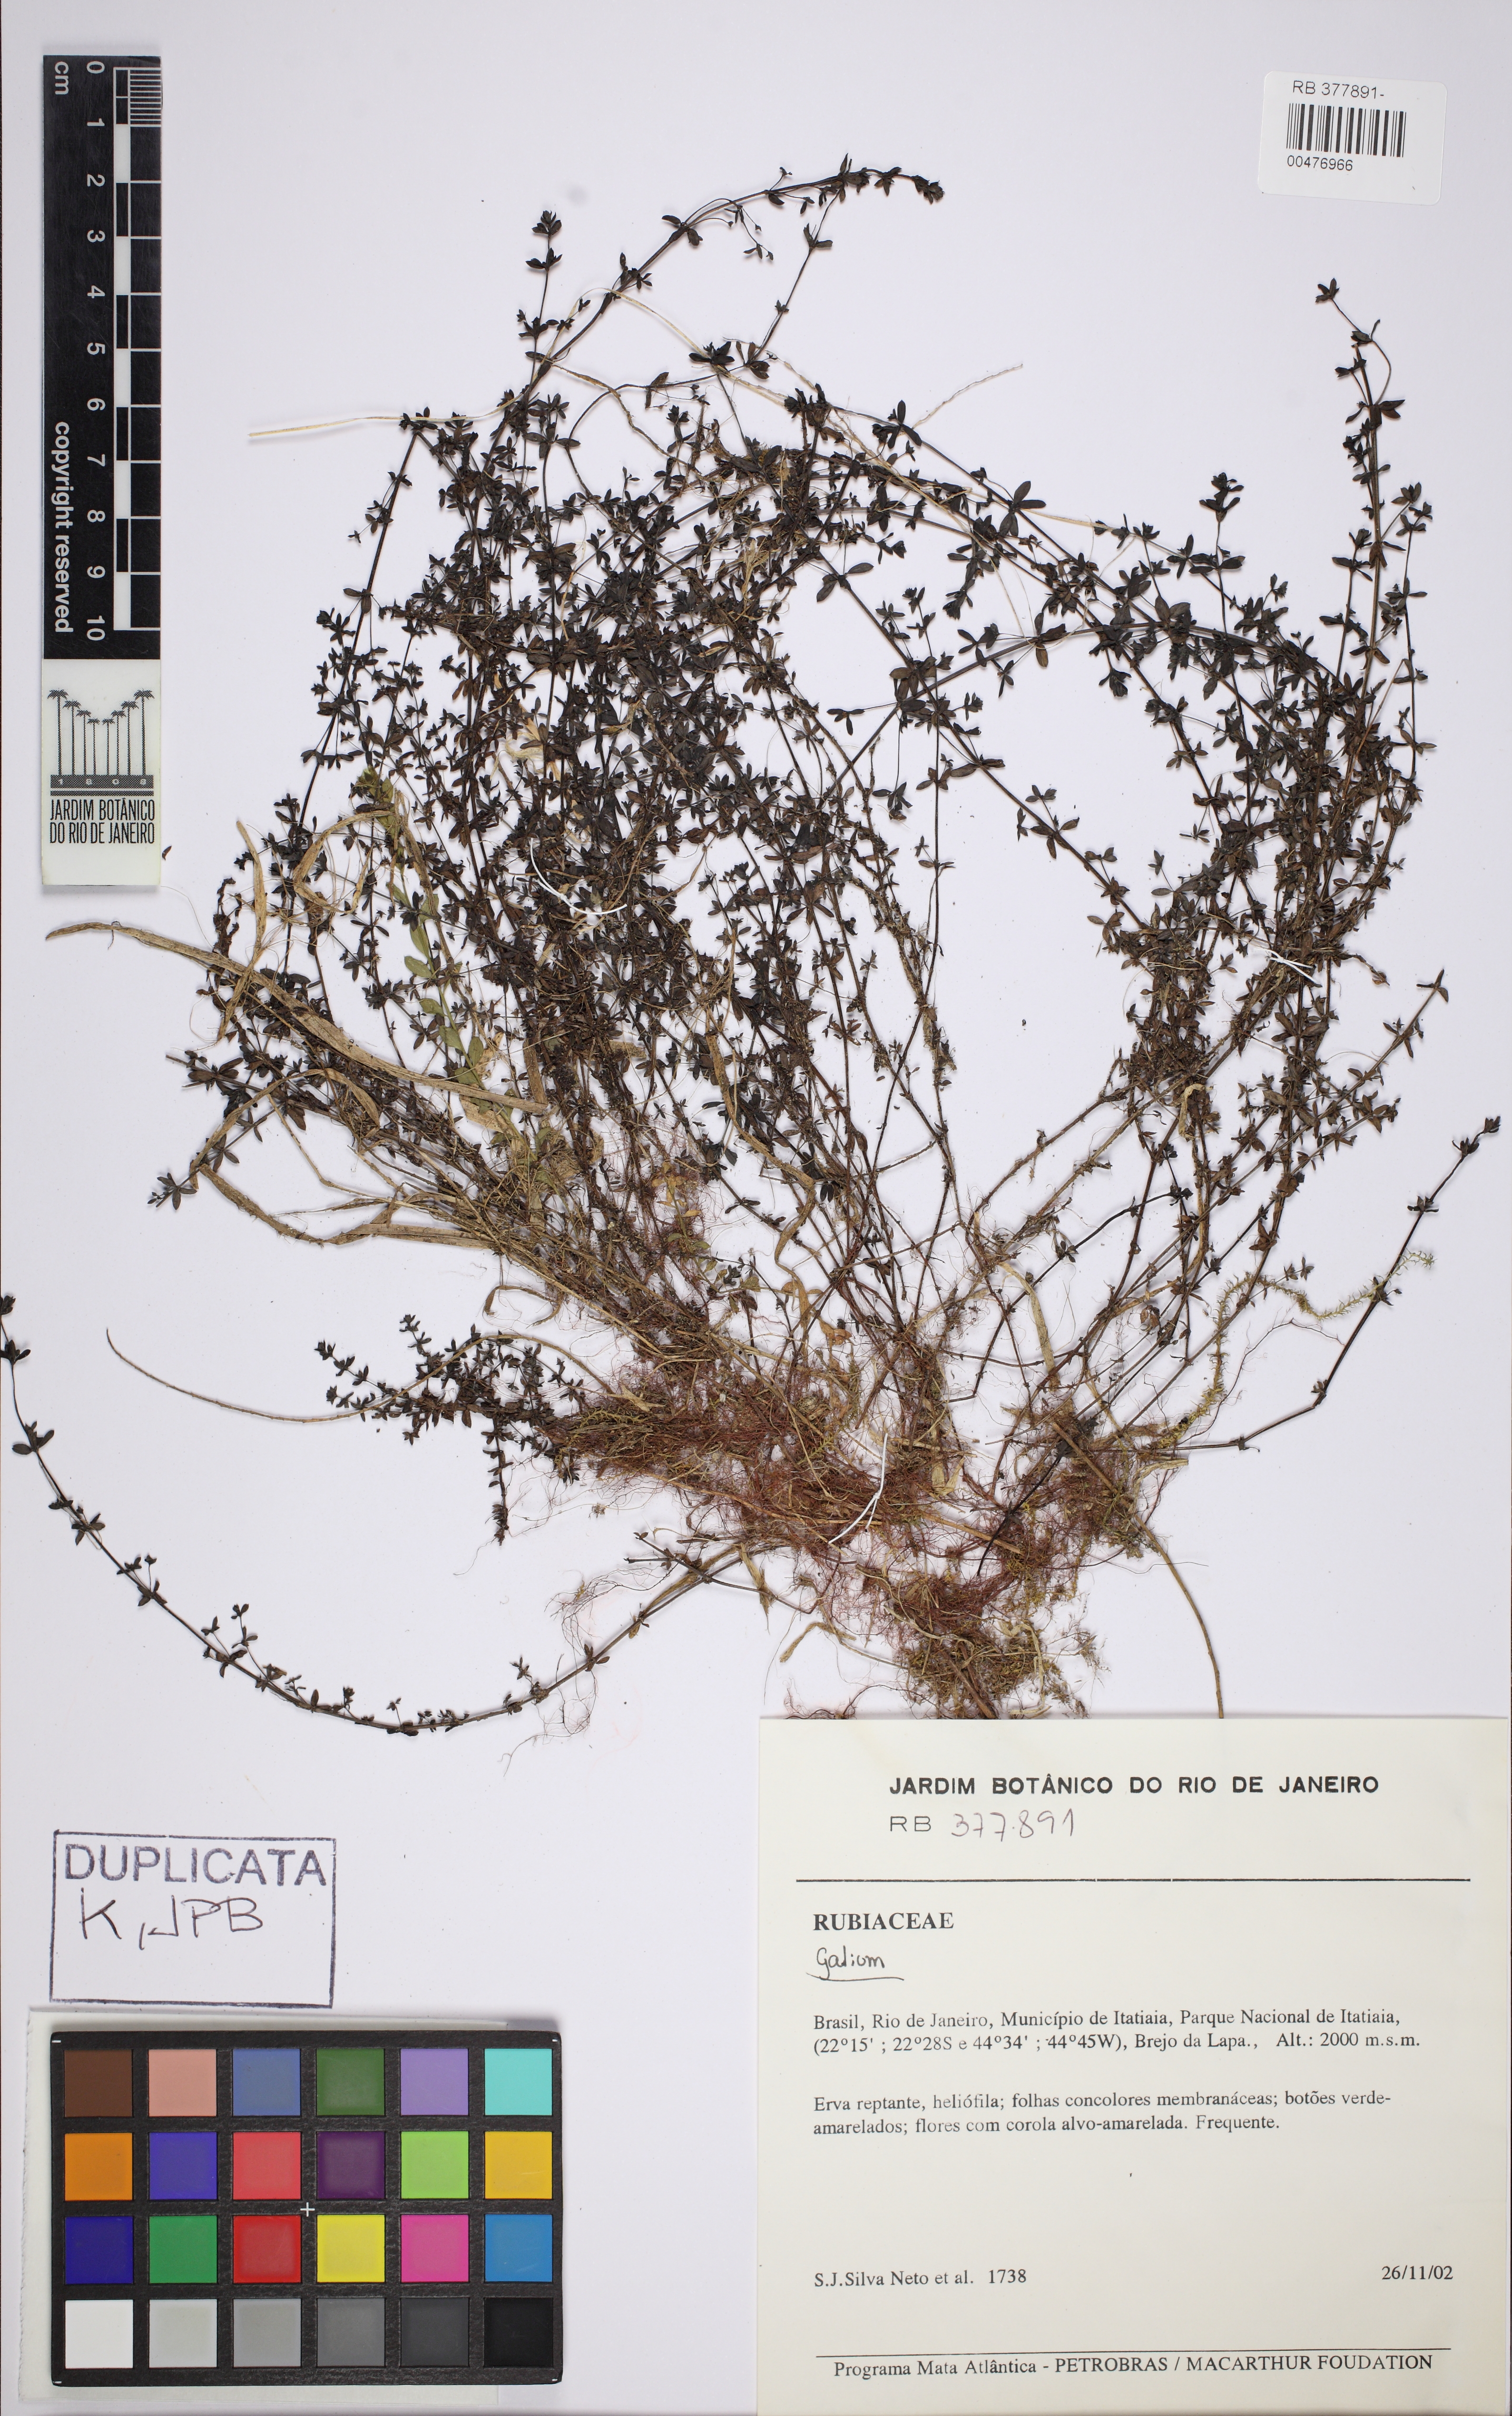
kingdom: Plantae
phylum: Tracheophyta
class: Magnoliopsida
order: Gentianales
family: Rubiaceae
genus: Galium
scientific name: Galium hypocarpium
